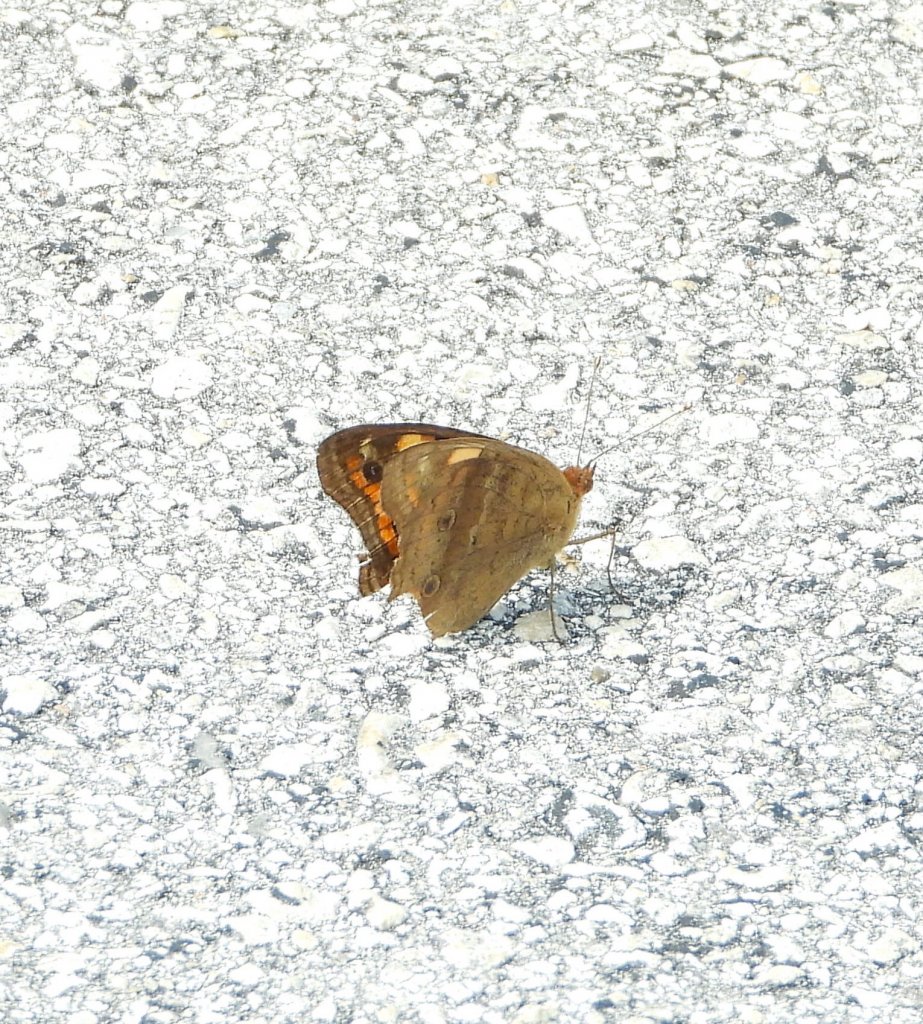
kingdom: Animalia
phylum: Arthropoda
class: Insecta
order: Lepidoptera
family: Nymphalidae
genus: Junonia
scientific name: Junonia evarete
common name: Mangrove Buckeye
